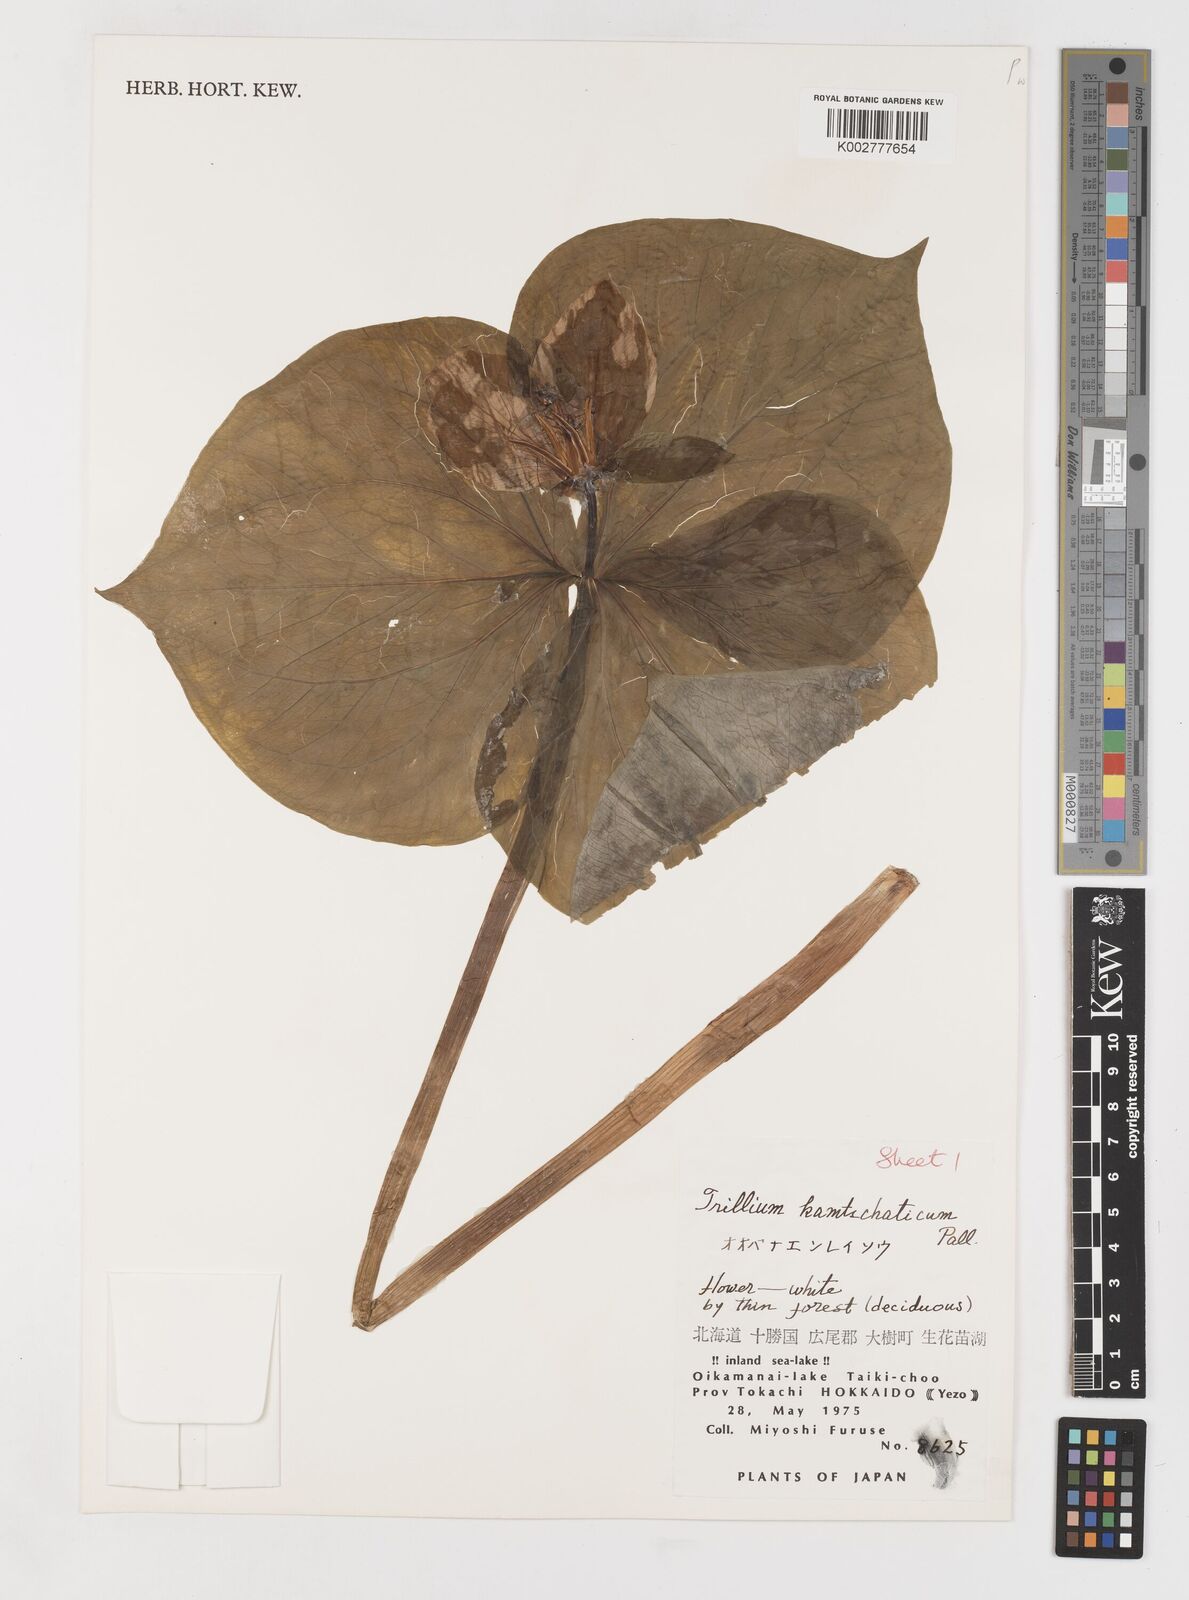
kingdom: Plantae
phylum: Tracheophyta
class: Liliopsida
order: Liliales
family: Melanthiaceae
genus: Trillium
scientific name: Trillium camschatcense
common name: Kamchatka trillium
